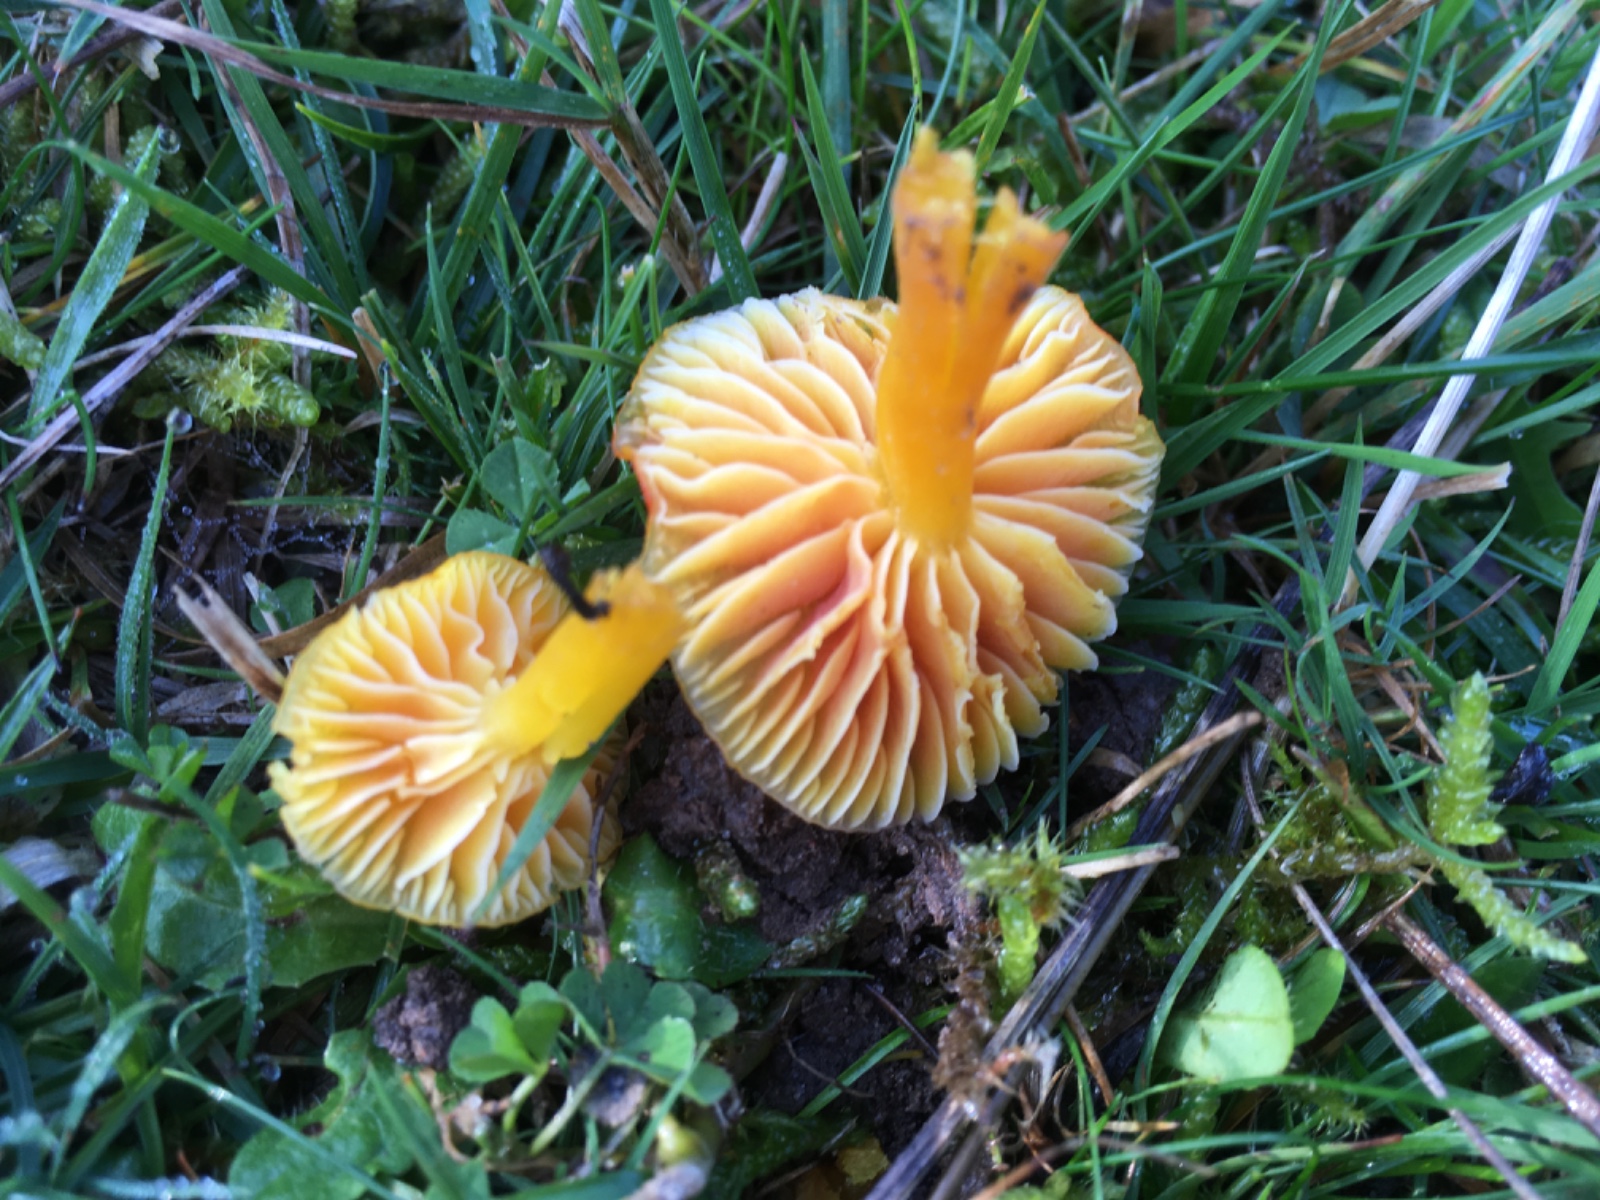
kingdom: Fungi
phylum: Basidiomycota
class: Agaricomycetes
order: Agaricales
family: Hygrophoraceae
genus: Hygrocybe
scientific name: Hygrocybe ceracea
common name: voksgul vokshat
